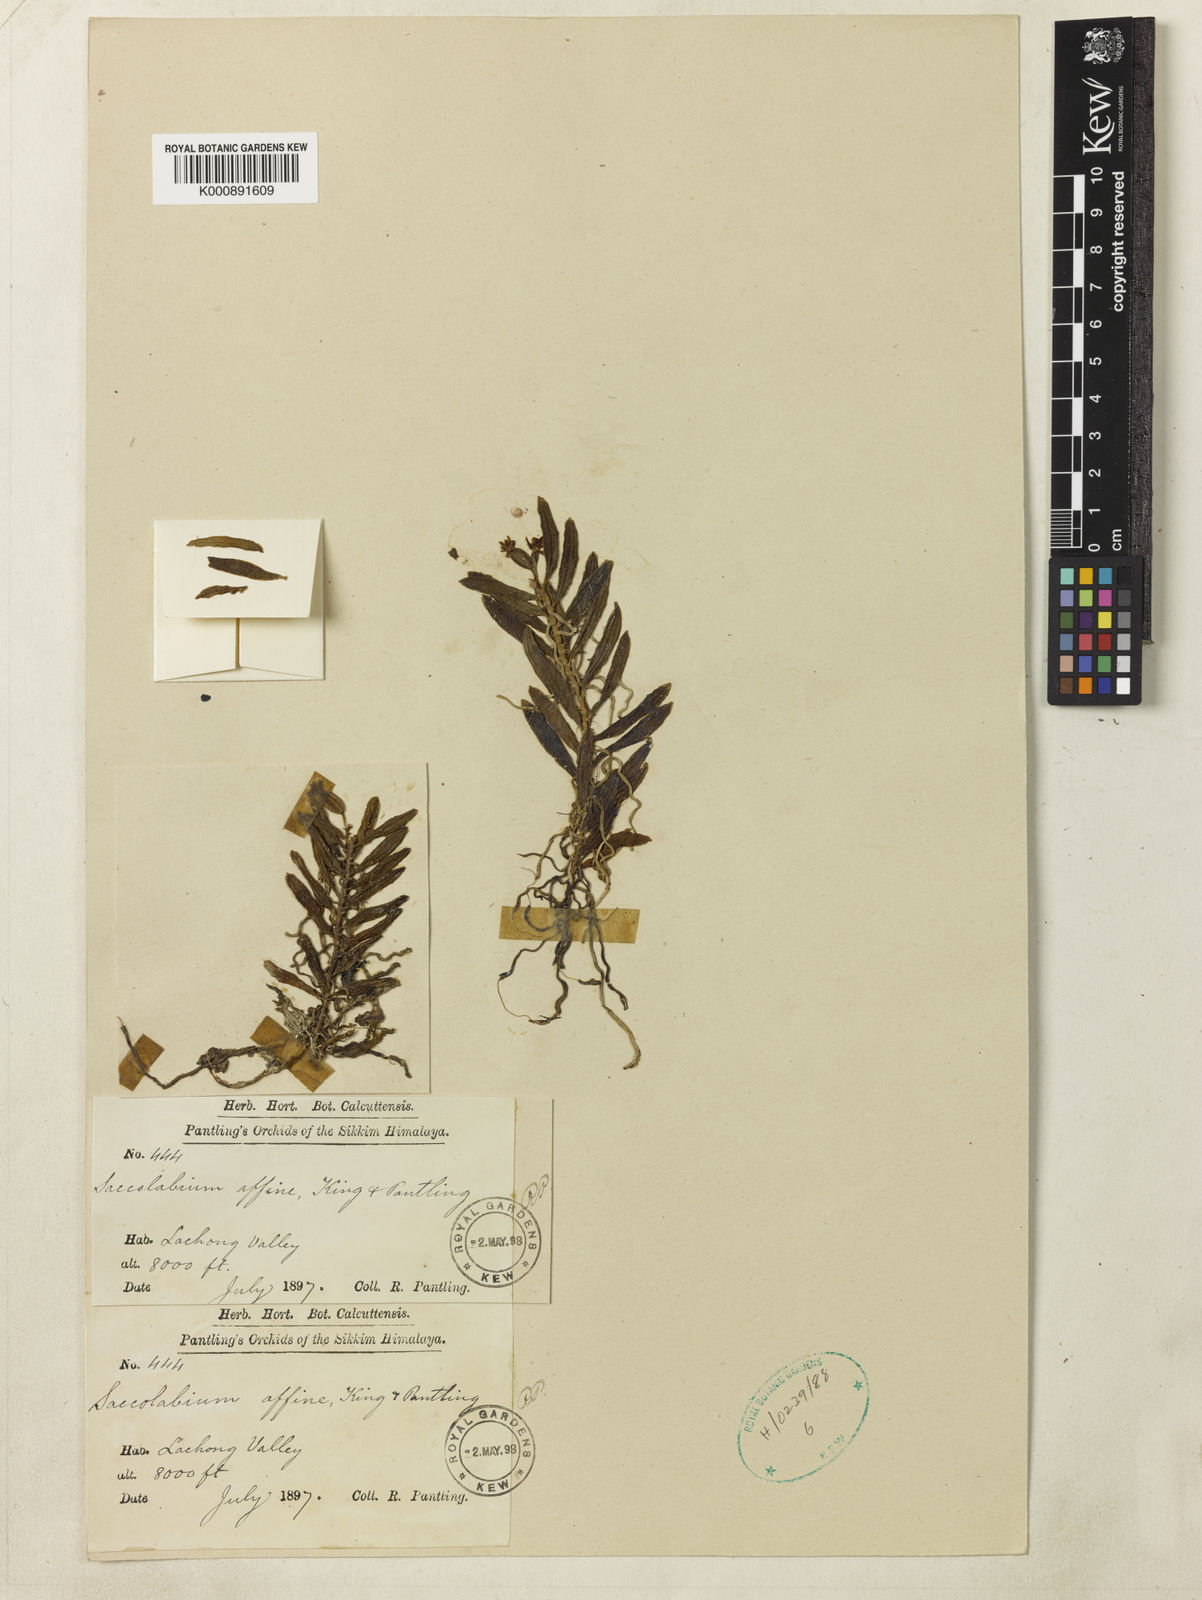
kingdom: Plantae
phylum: Tracheophyta
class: Liliopsida
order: Asparagales
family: Orchidaceae
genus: Gastrochilus
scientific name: Gastrochilus affinis
